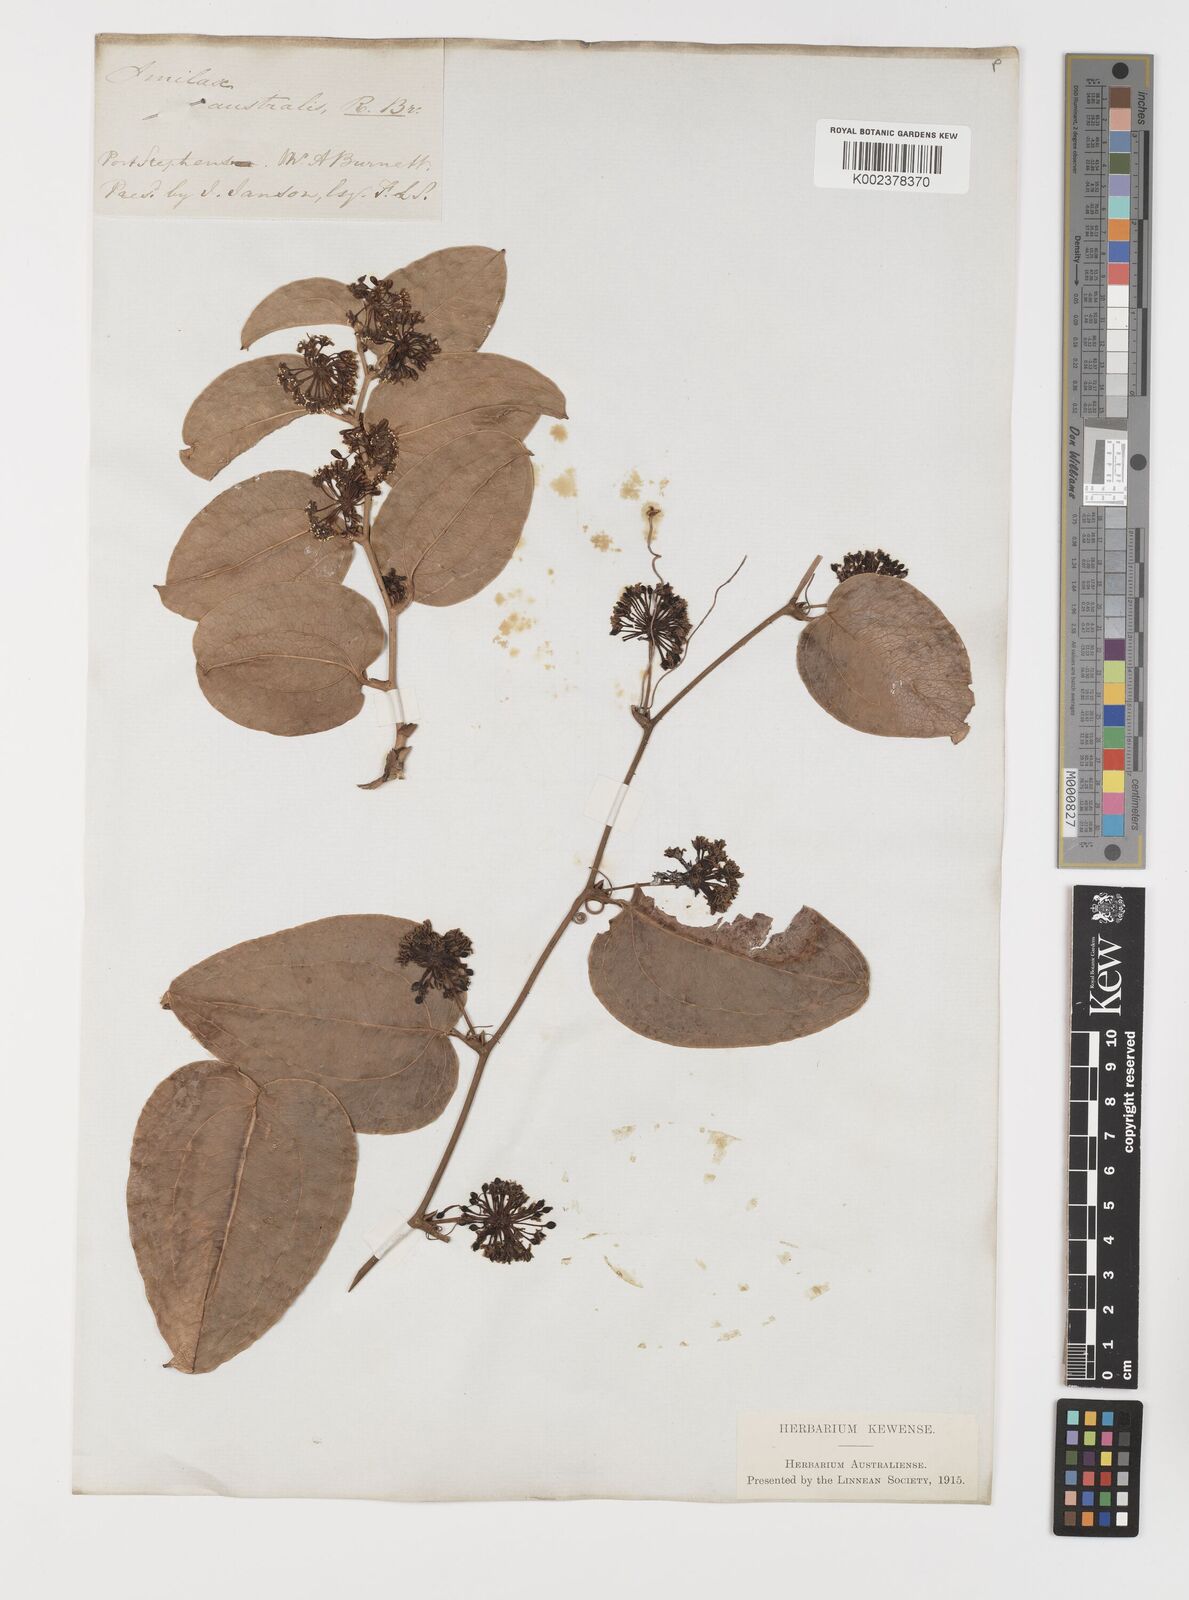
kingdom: Plantae
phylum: Tracheophyta
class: Liliopsida
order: Liliales
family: Smilacaceae
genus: Smilax
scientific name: Smilax australis
